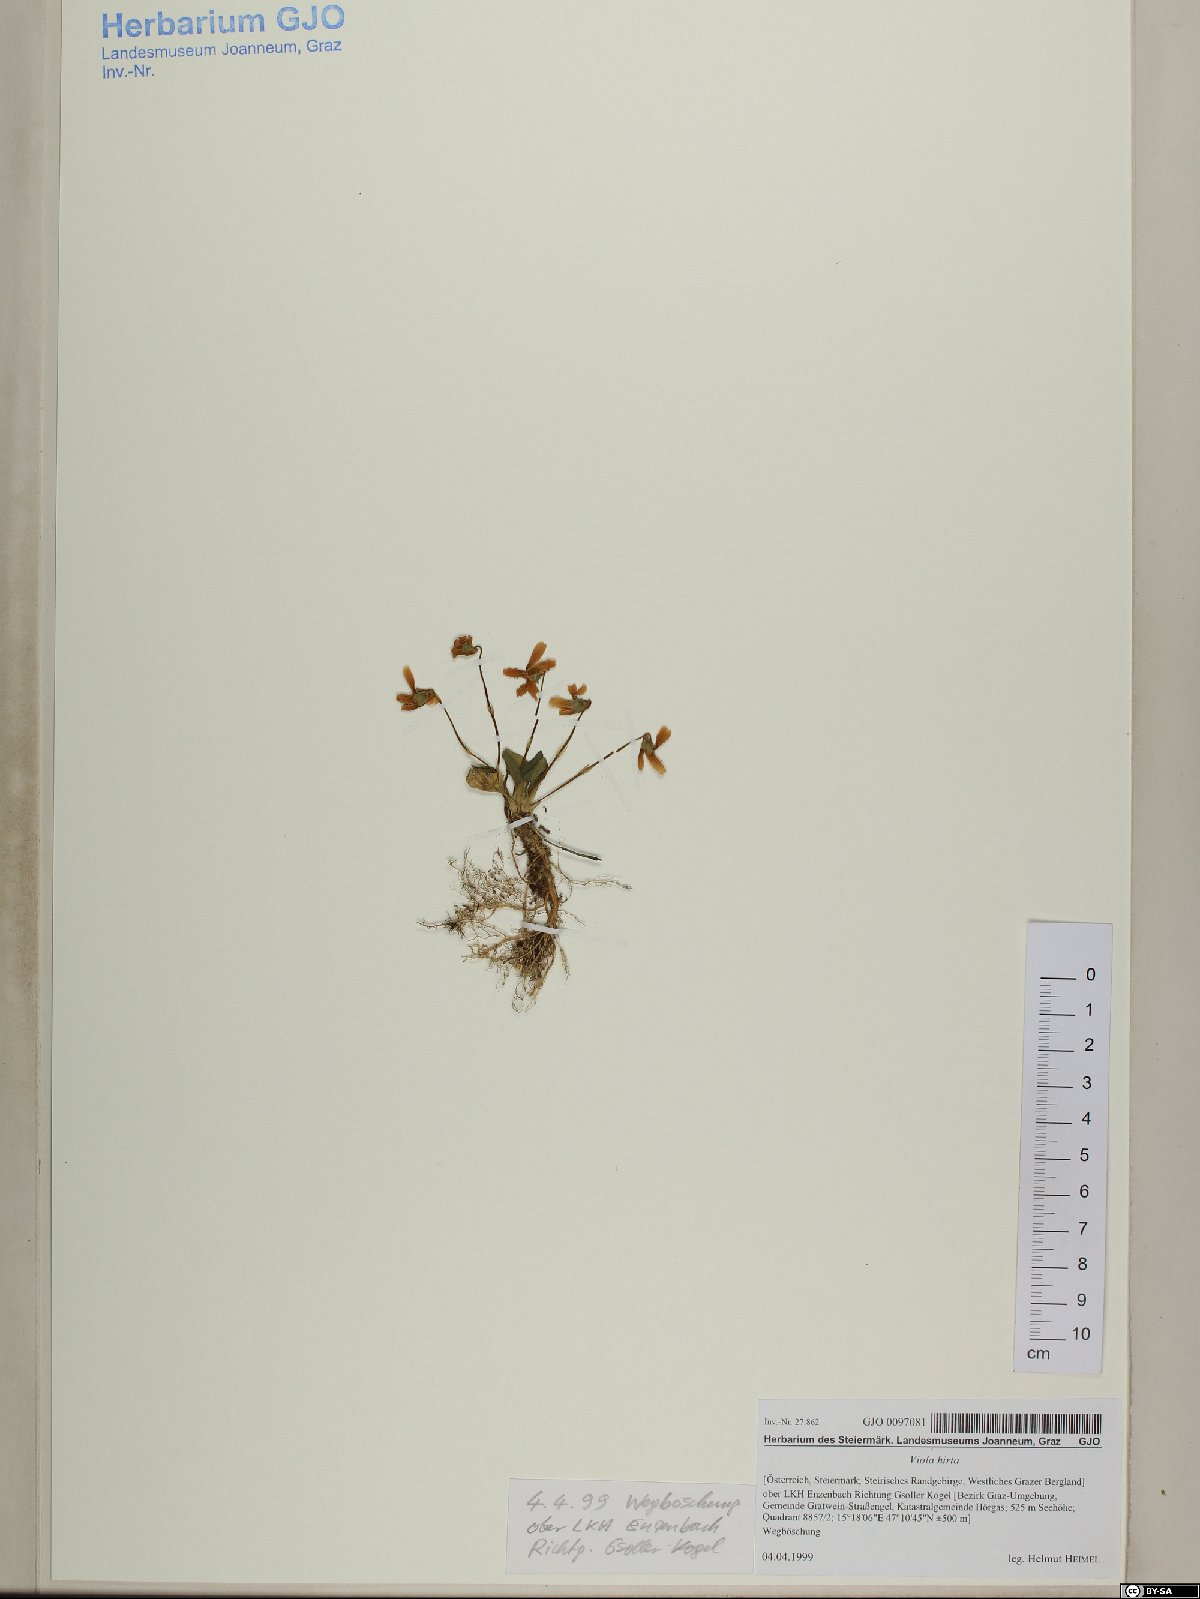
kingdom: Plantae
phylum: Tracheophyta
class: Magnoliopsida
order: Malpighiales
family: Violaceae
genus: Viola
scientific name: Viola hirta
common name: Hairy violet
